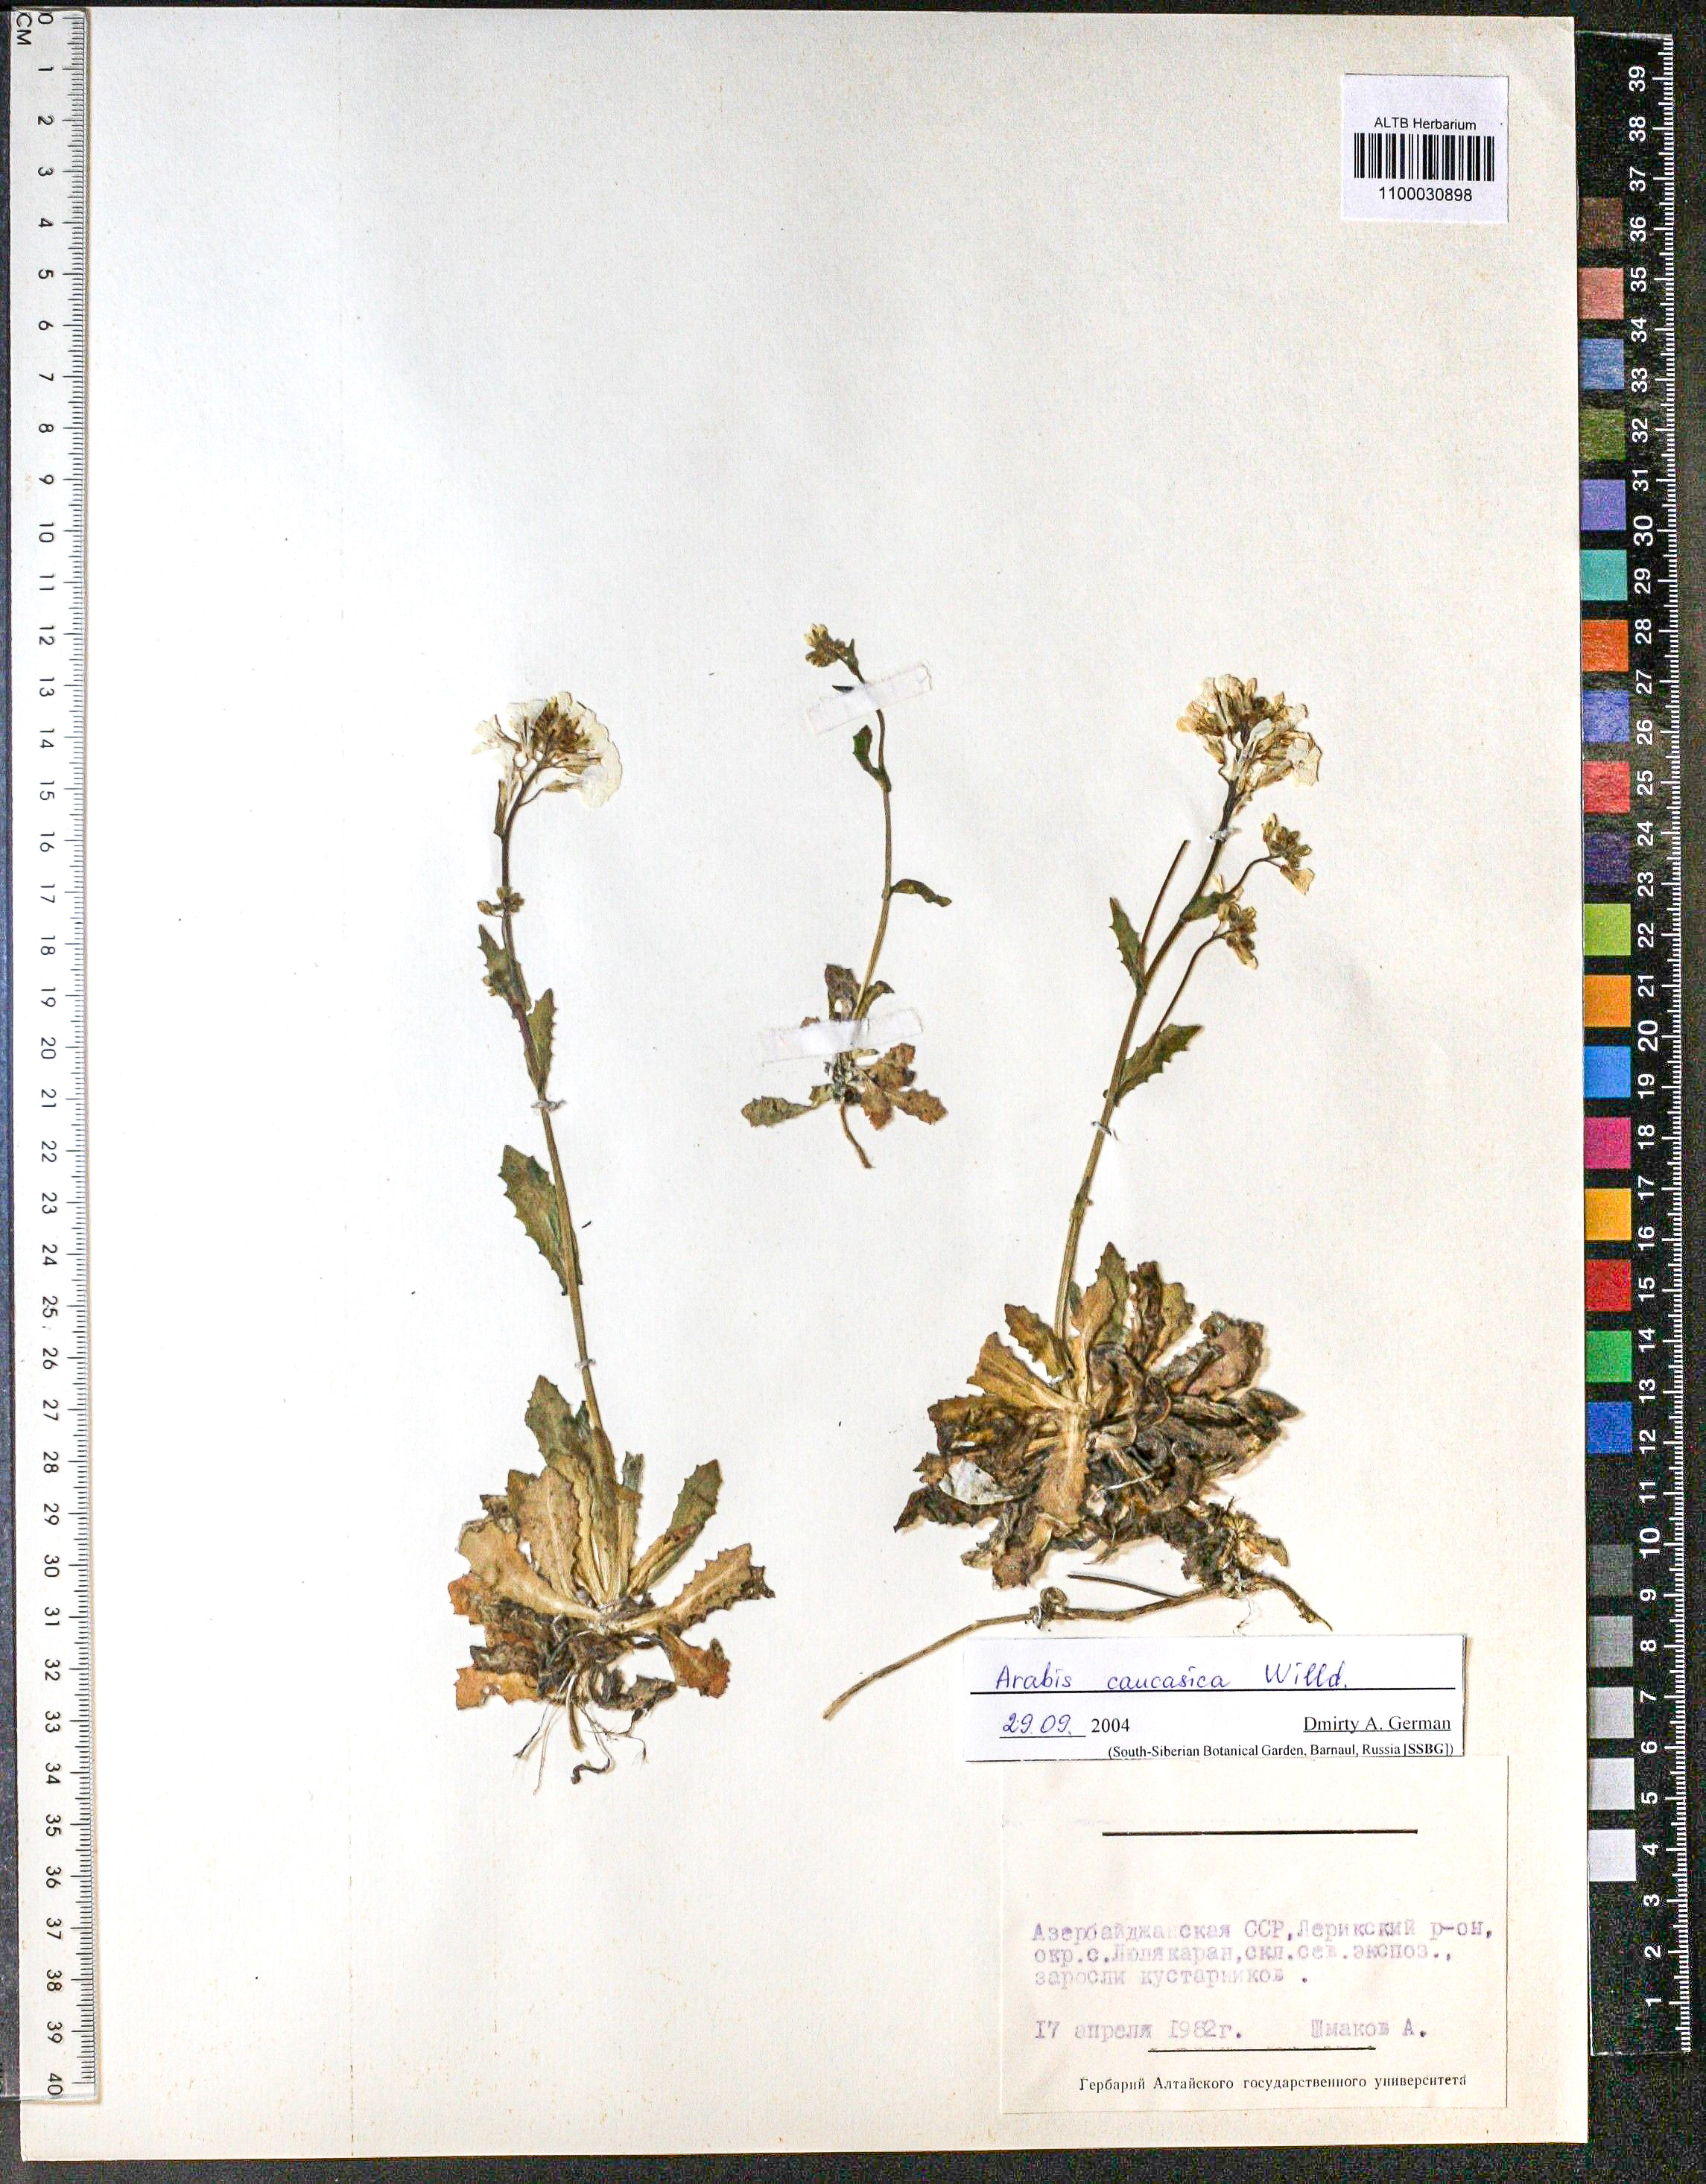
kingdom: Plantae
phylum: Tracheophyta
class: Magnoliopsida
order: Brassicales
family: Brassicaceae
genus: Arabis
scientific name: Arabis caucasica
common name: Gray rockcress
